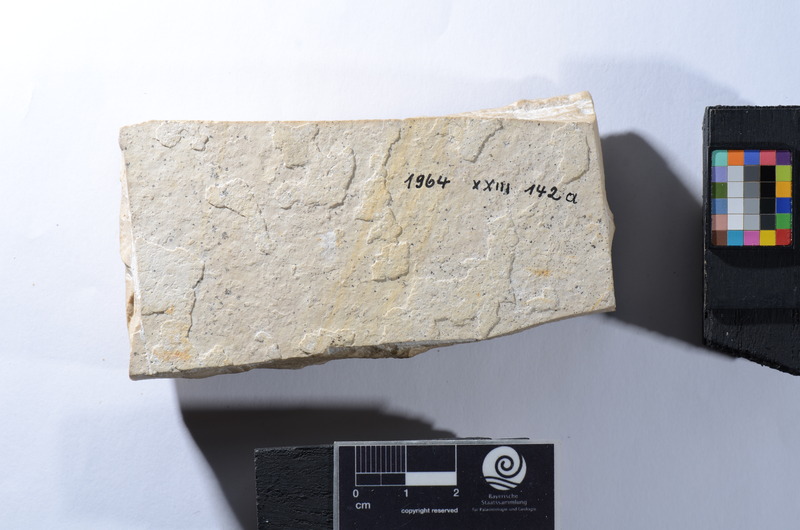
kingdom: Animalia
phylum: Chordata
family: Ophiopsiellidae
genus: Furo
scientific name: Furo
